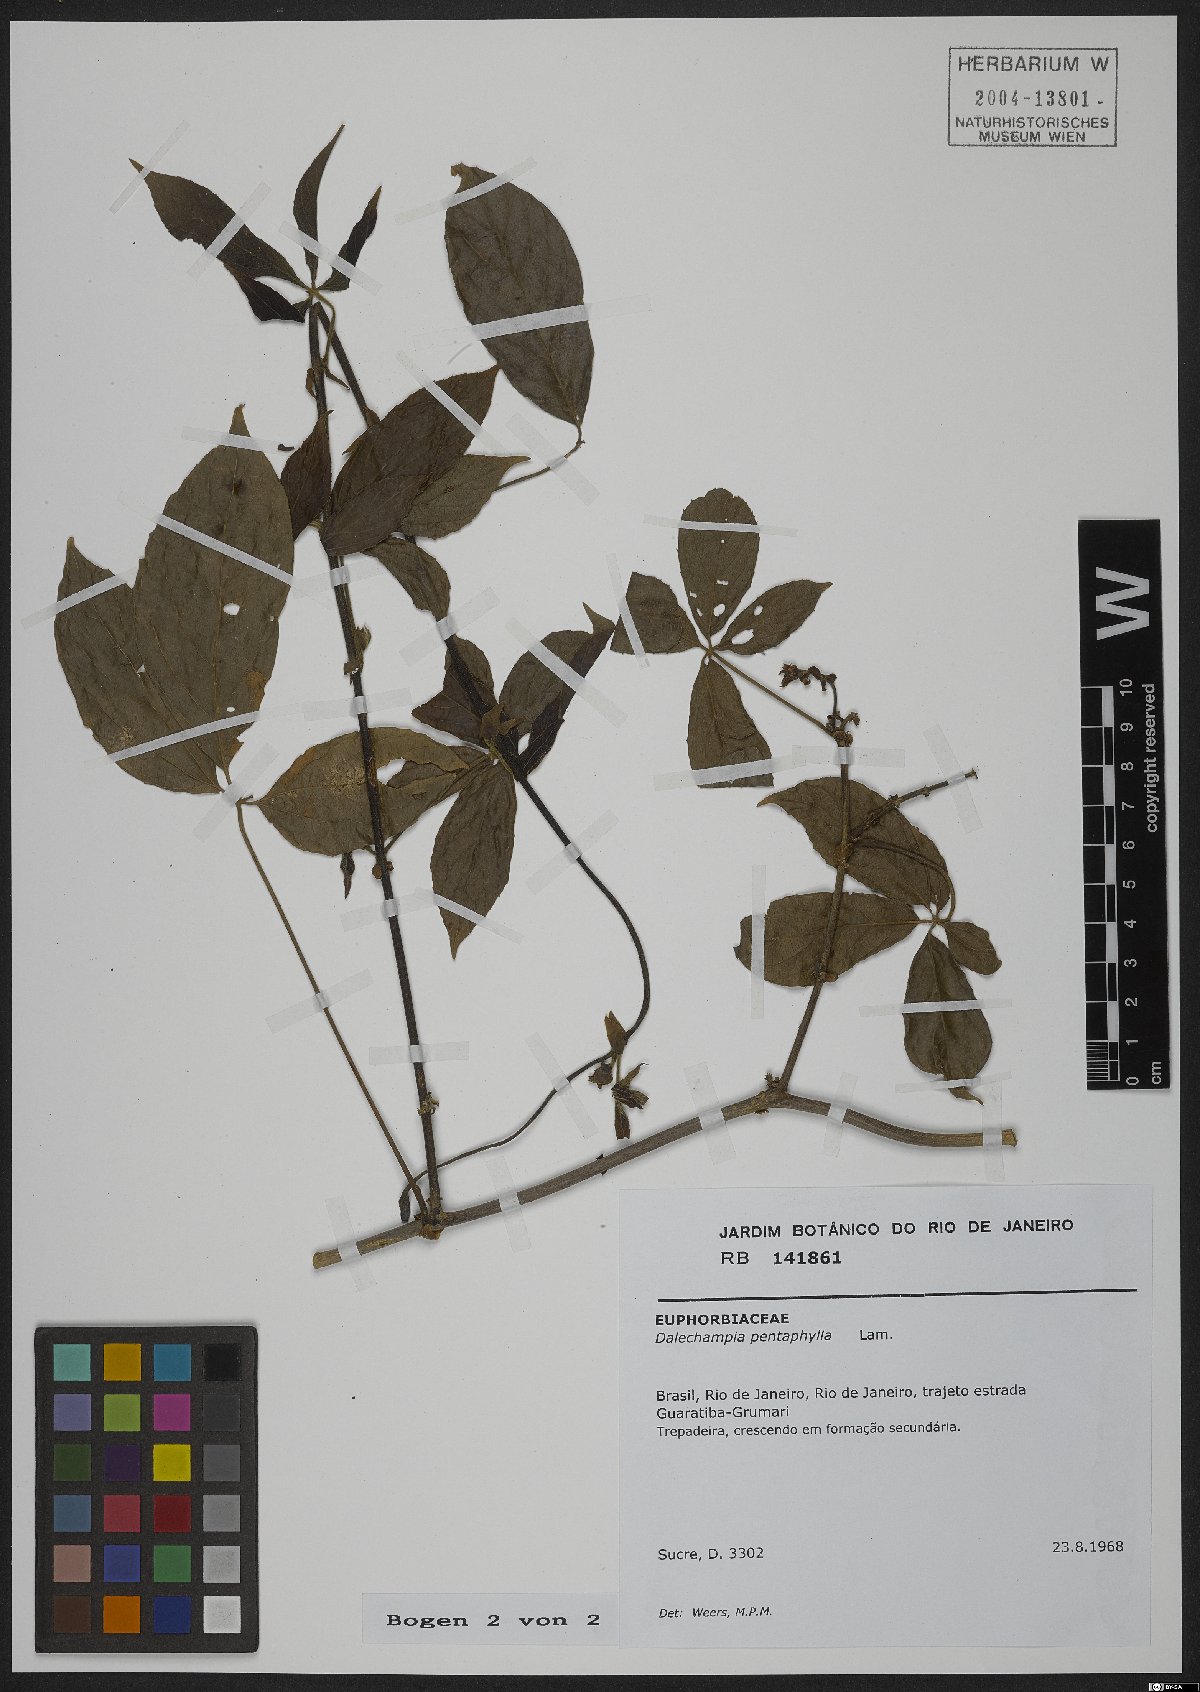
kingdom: Plantae
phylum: Tracheophyta
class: Magnoliopsida
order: Malpighiales
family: Euphorbiaceae
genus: Dalechampia
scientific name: Dalechampia pentaphylla
